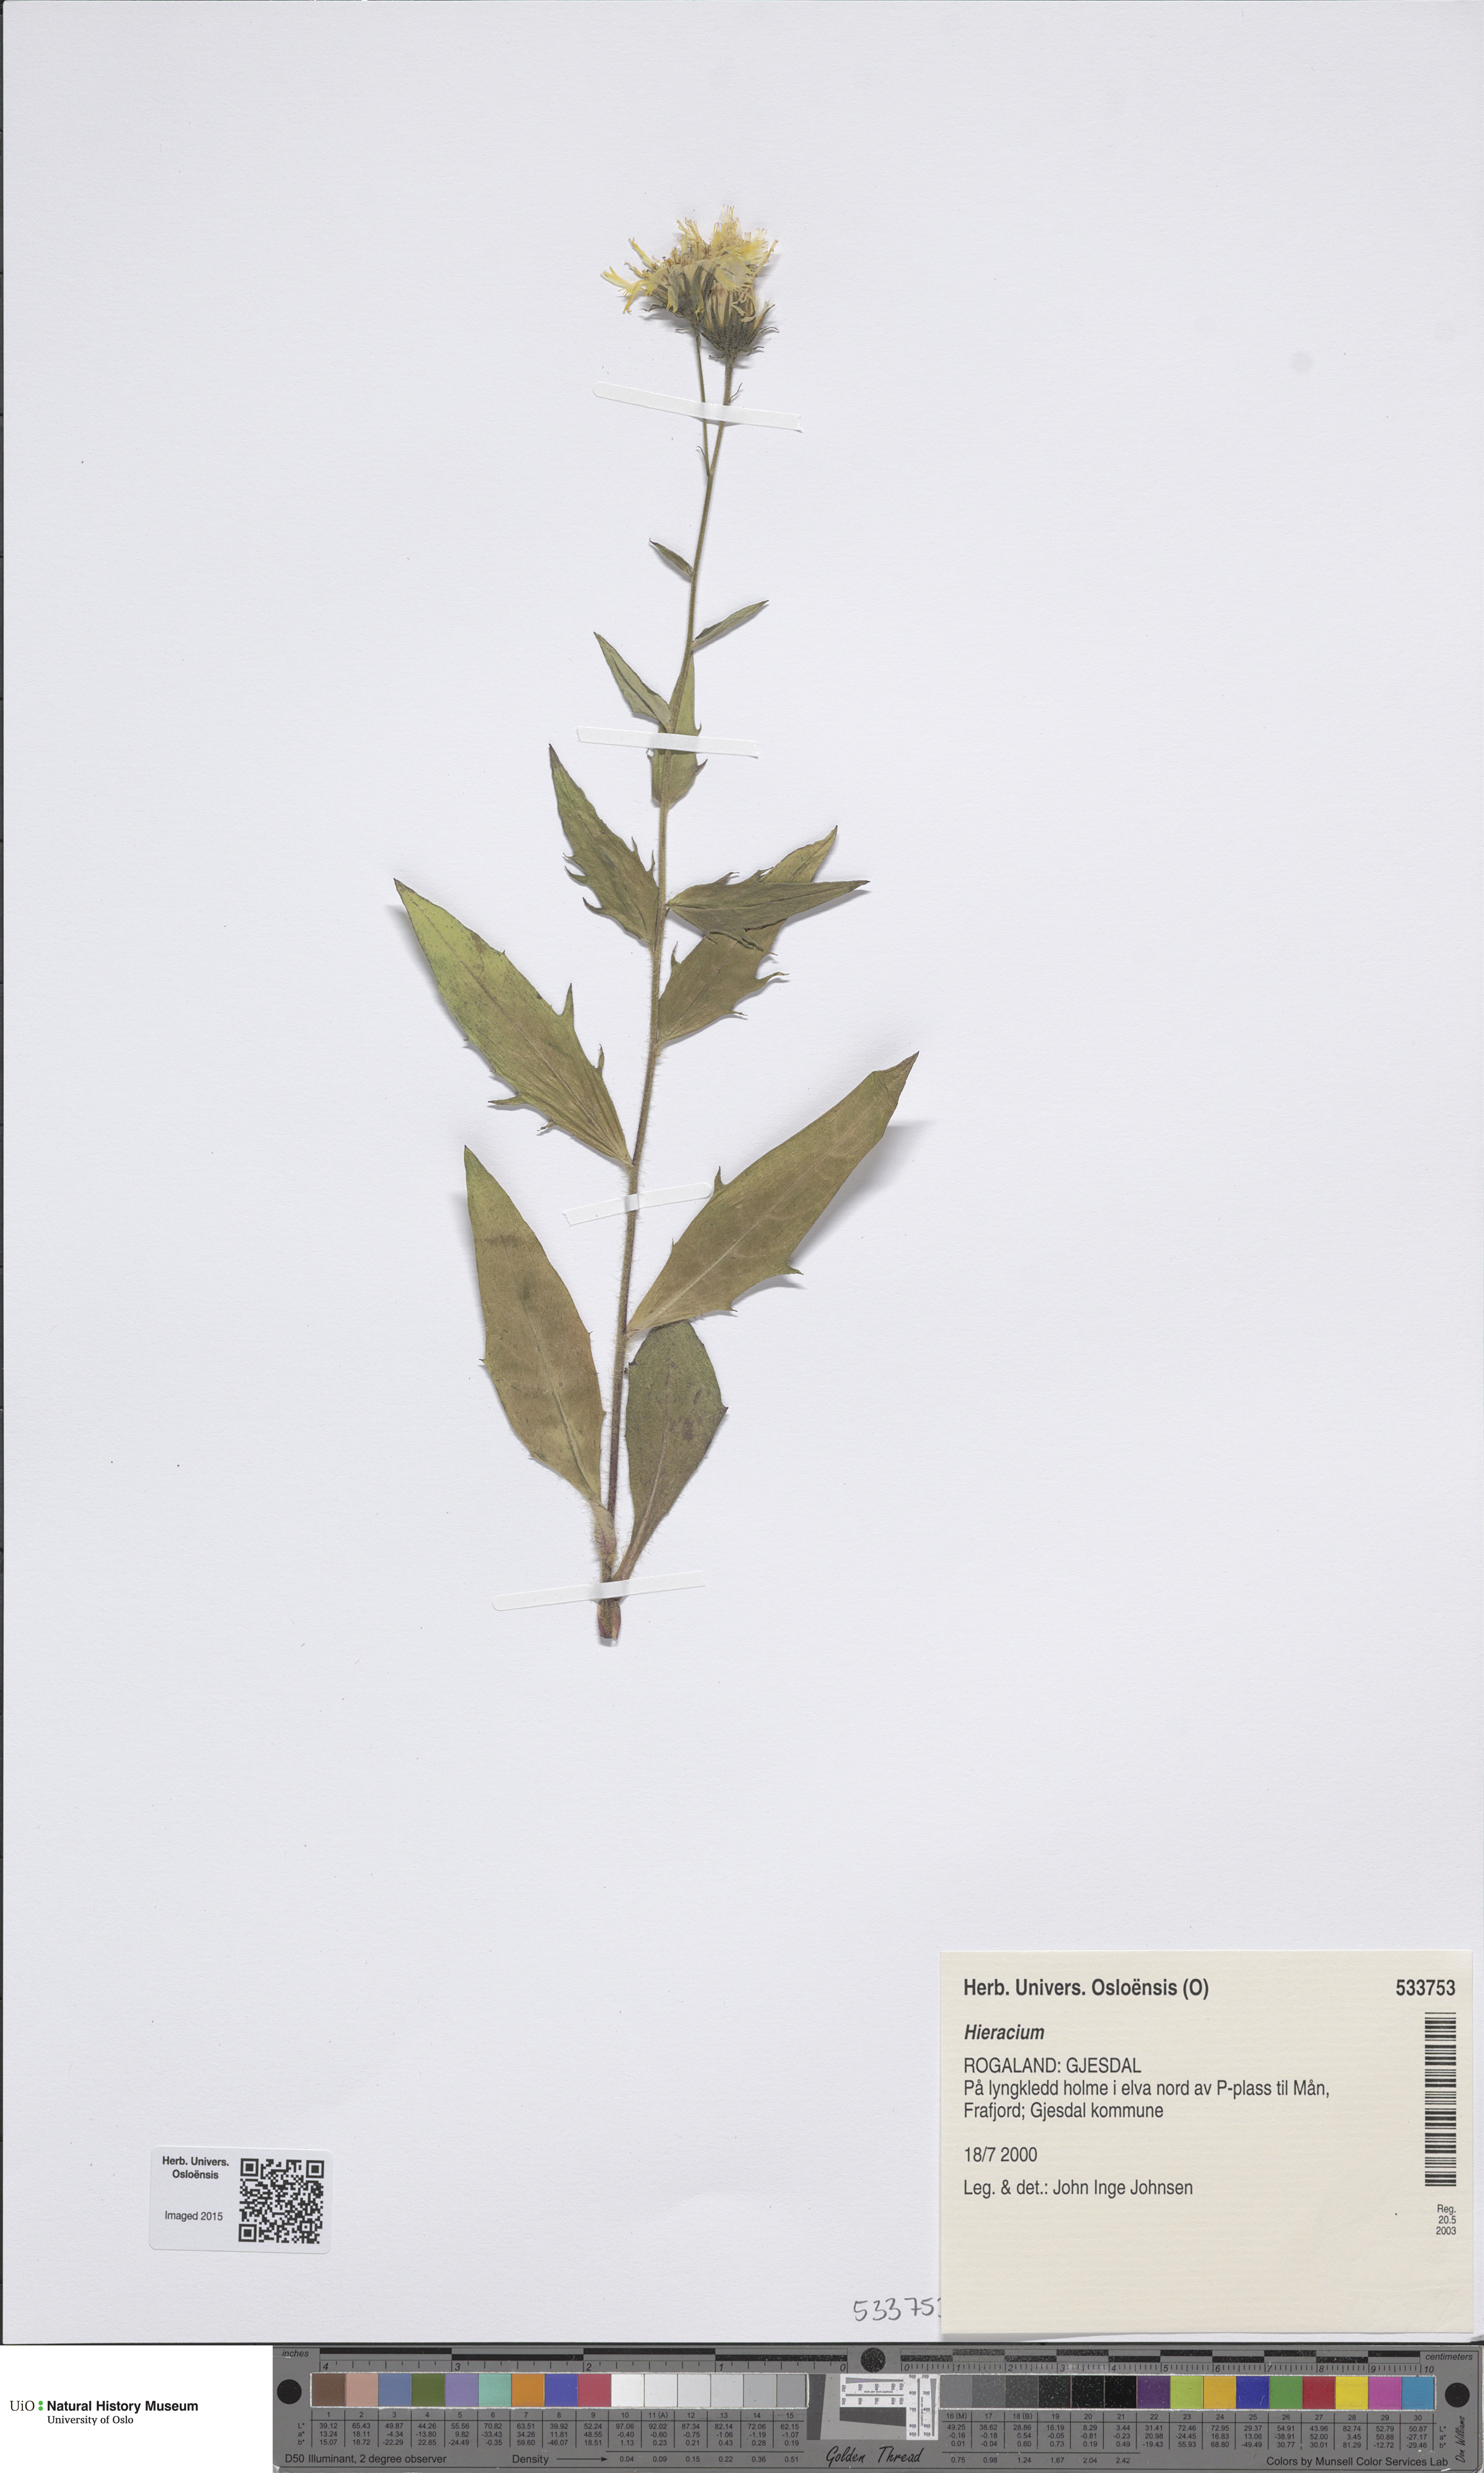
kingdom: Plantae
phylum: Tracheophyta
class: Magnoliopsida
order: Asterales
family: Asteraceae
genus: Hieracium
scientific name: Hieracium
